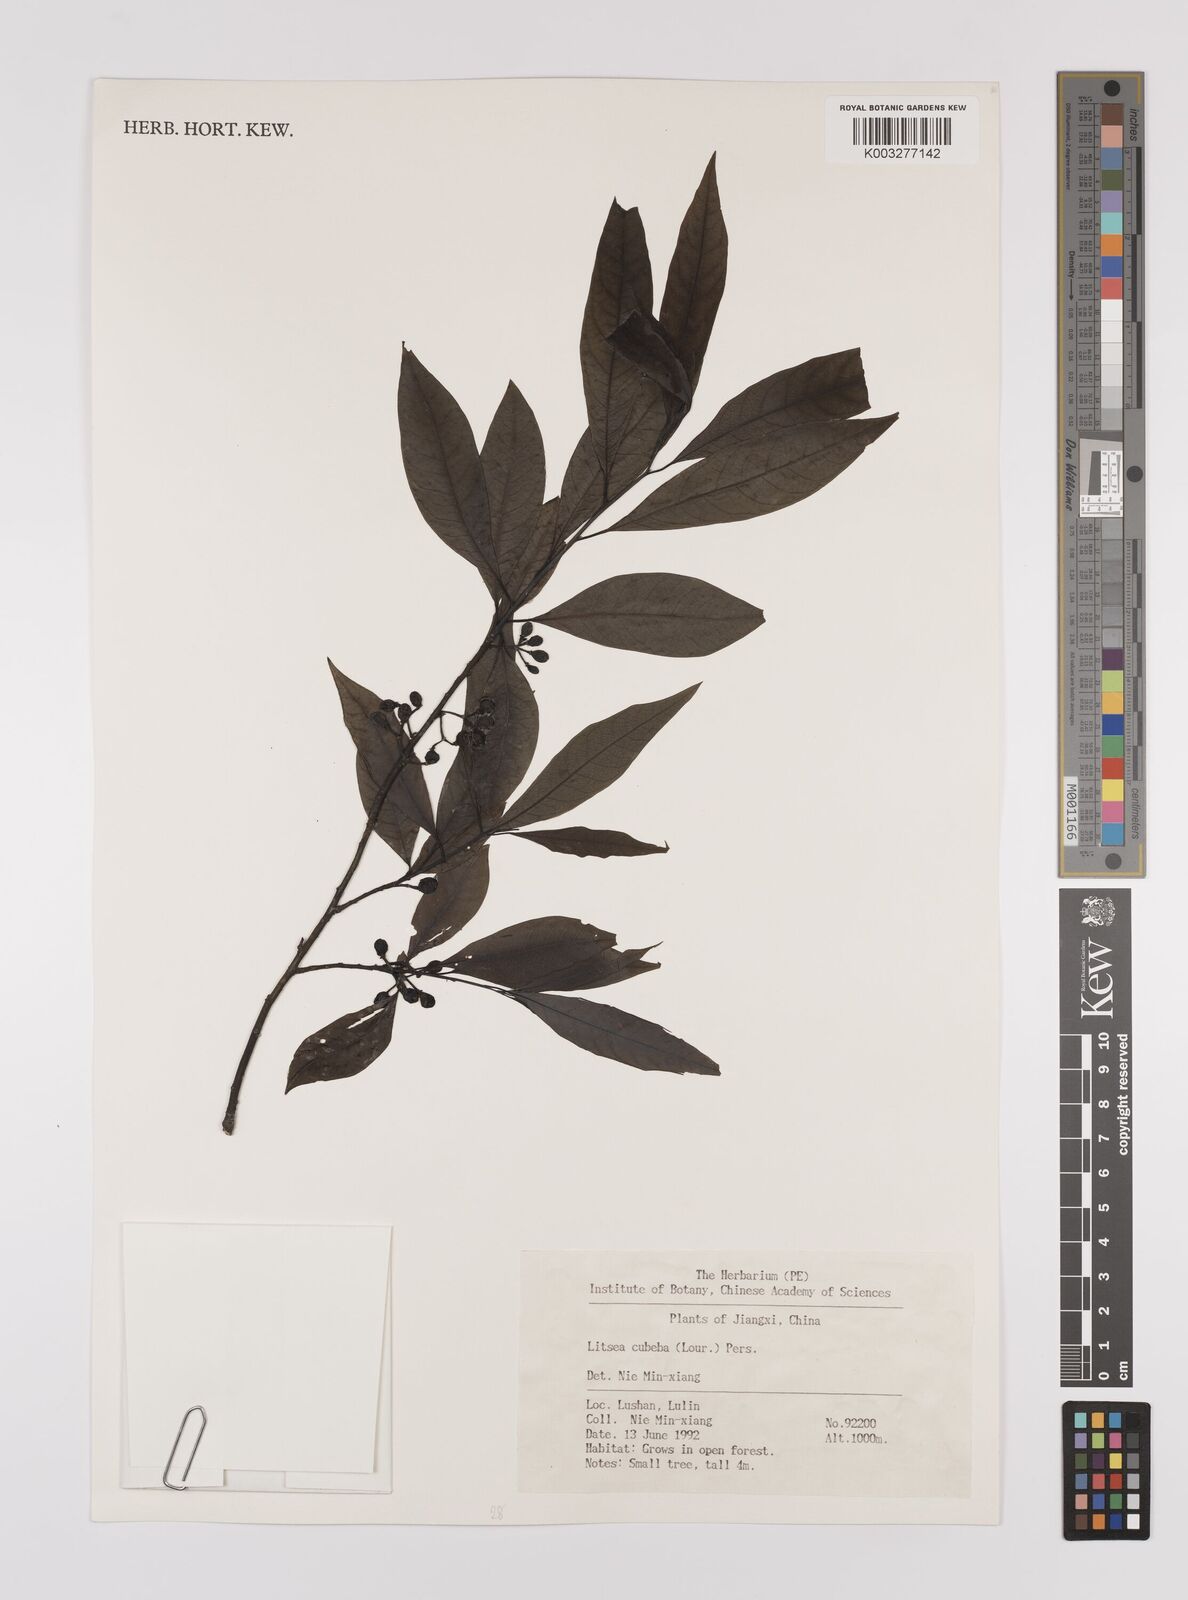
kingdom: Plantae
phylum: Tracheophyta
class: Magnoliopsida
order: Laurales
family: Lauraceae
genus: Litsea
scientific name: Litsea cubeba
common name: Mountain-pepper
